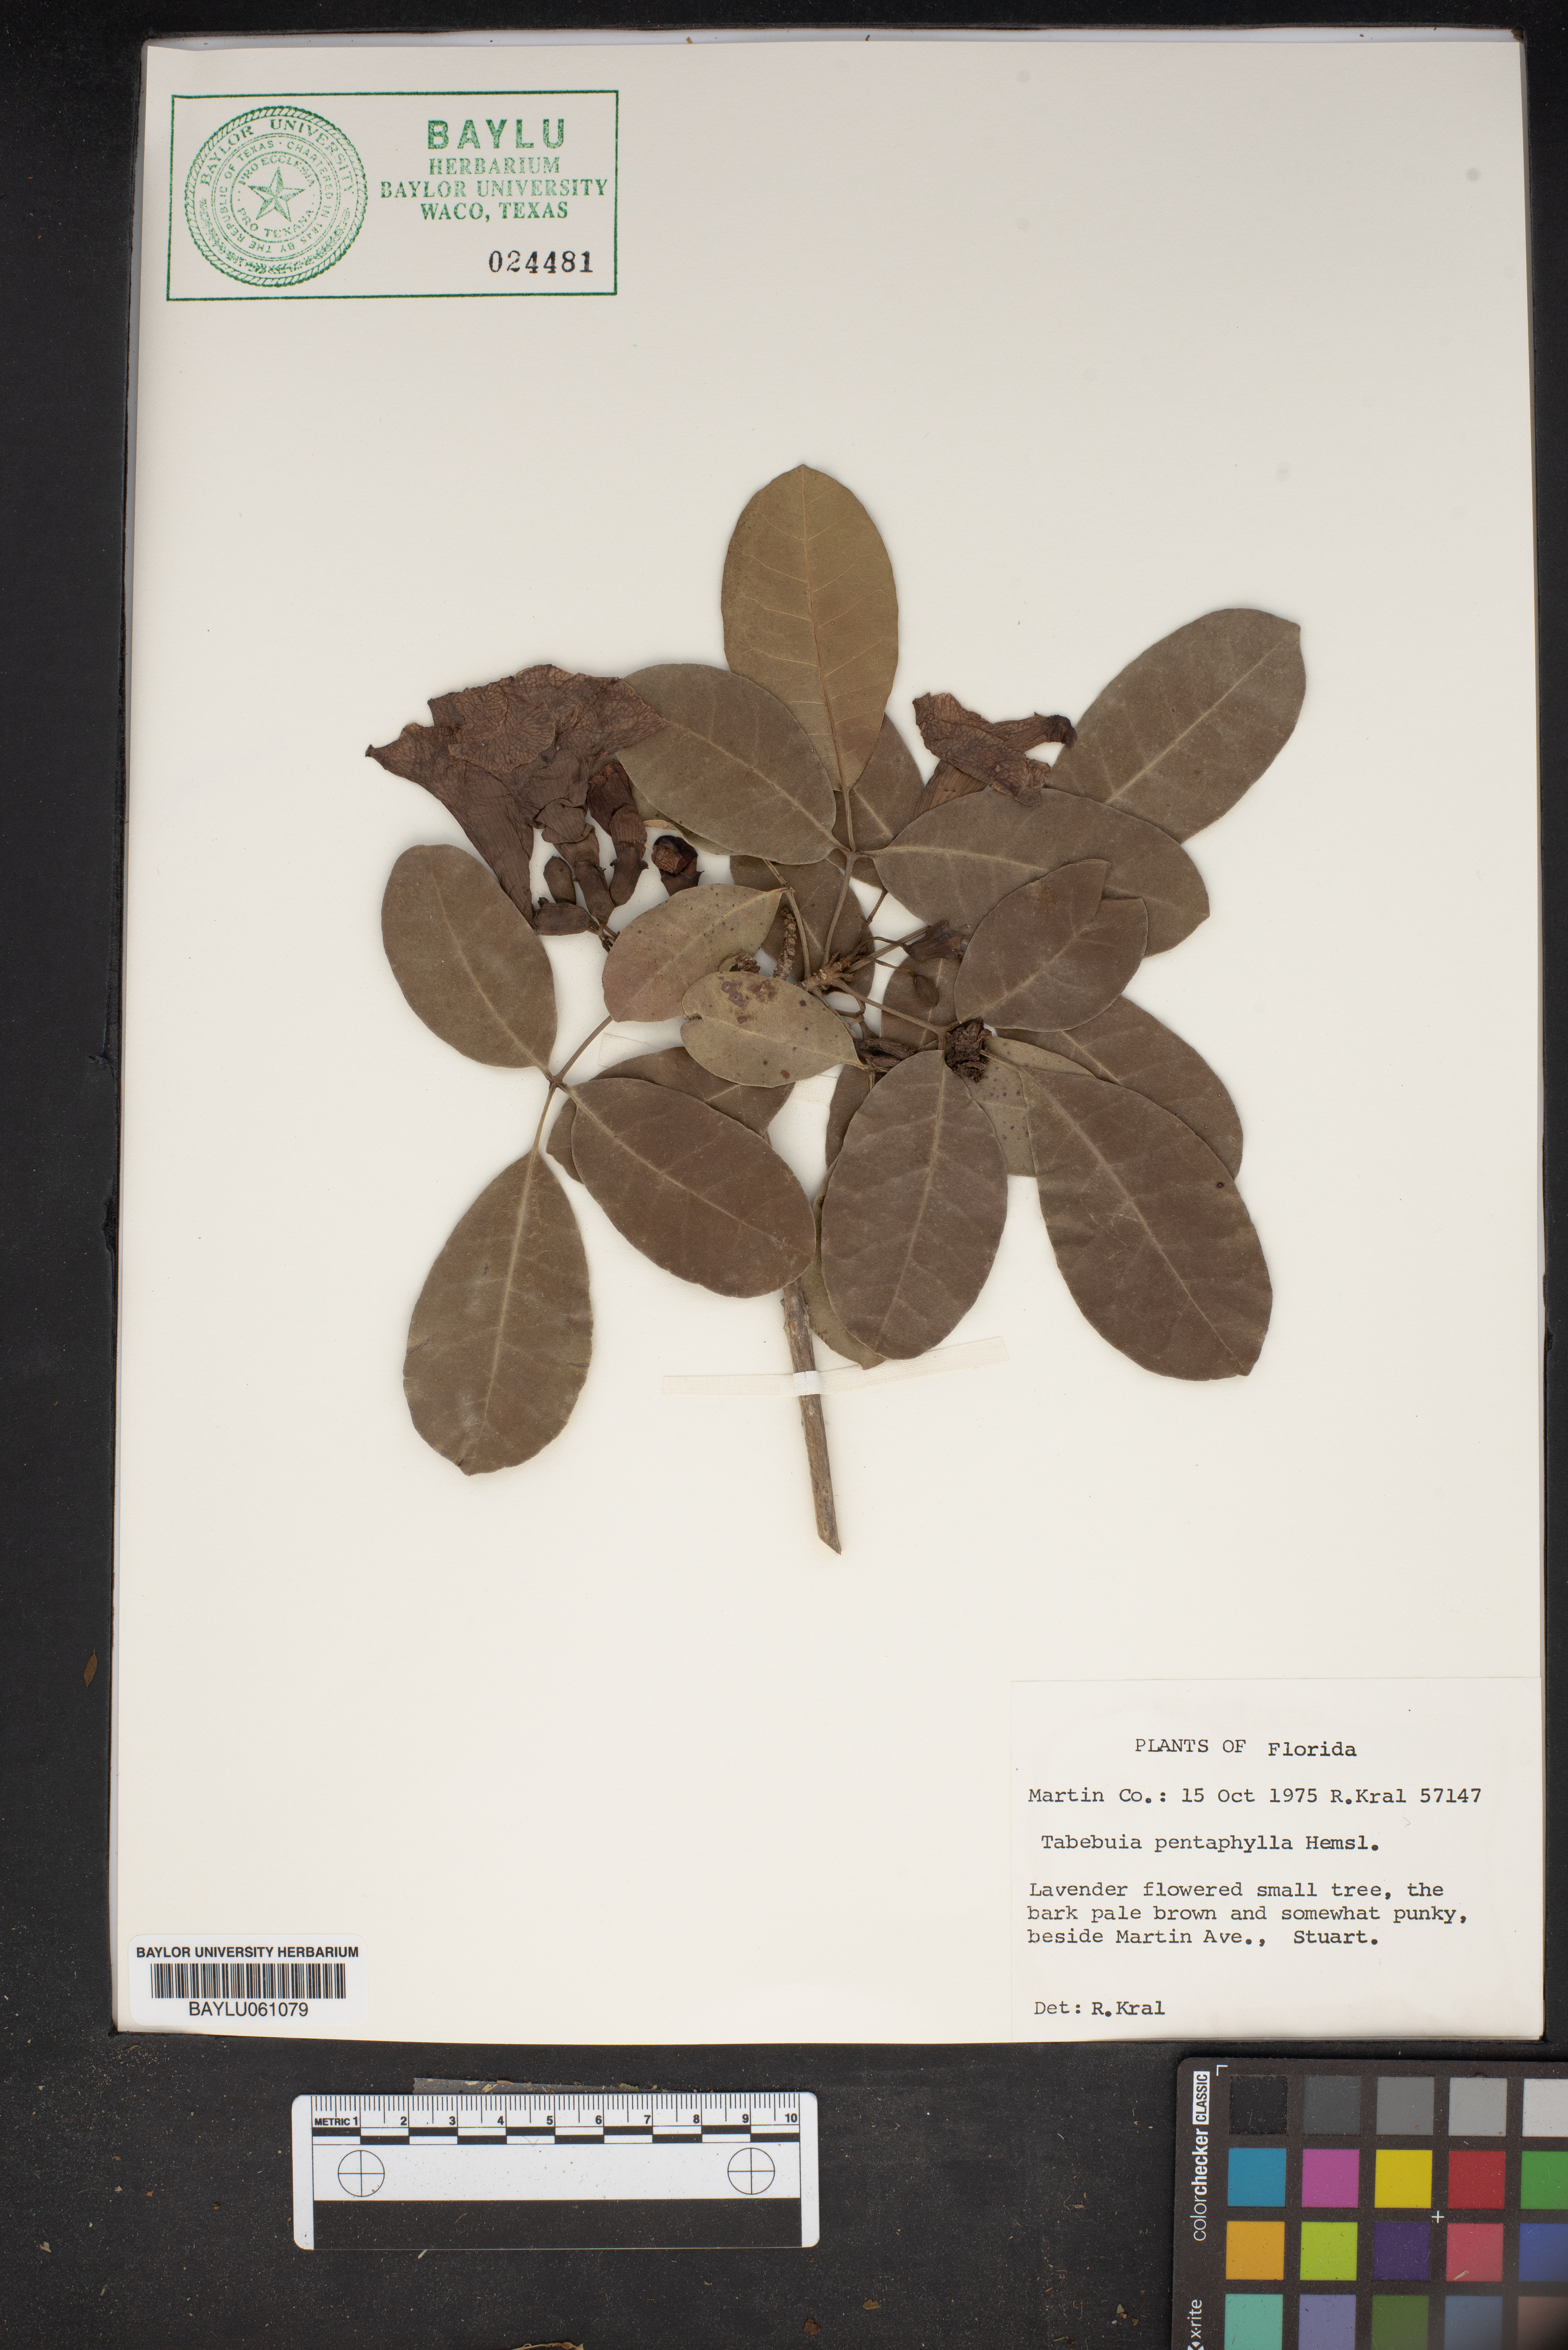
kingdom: Plantae
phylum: Tracheophyta
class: Magnoliopsida
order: Lamiales
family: Bignoniaceae
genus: Tabebuia
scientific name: Tabebuia heterophylla
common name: White cedar
